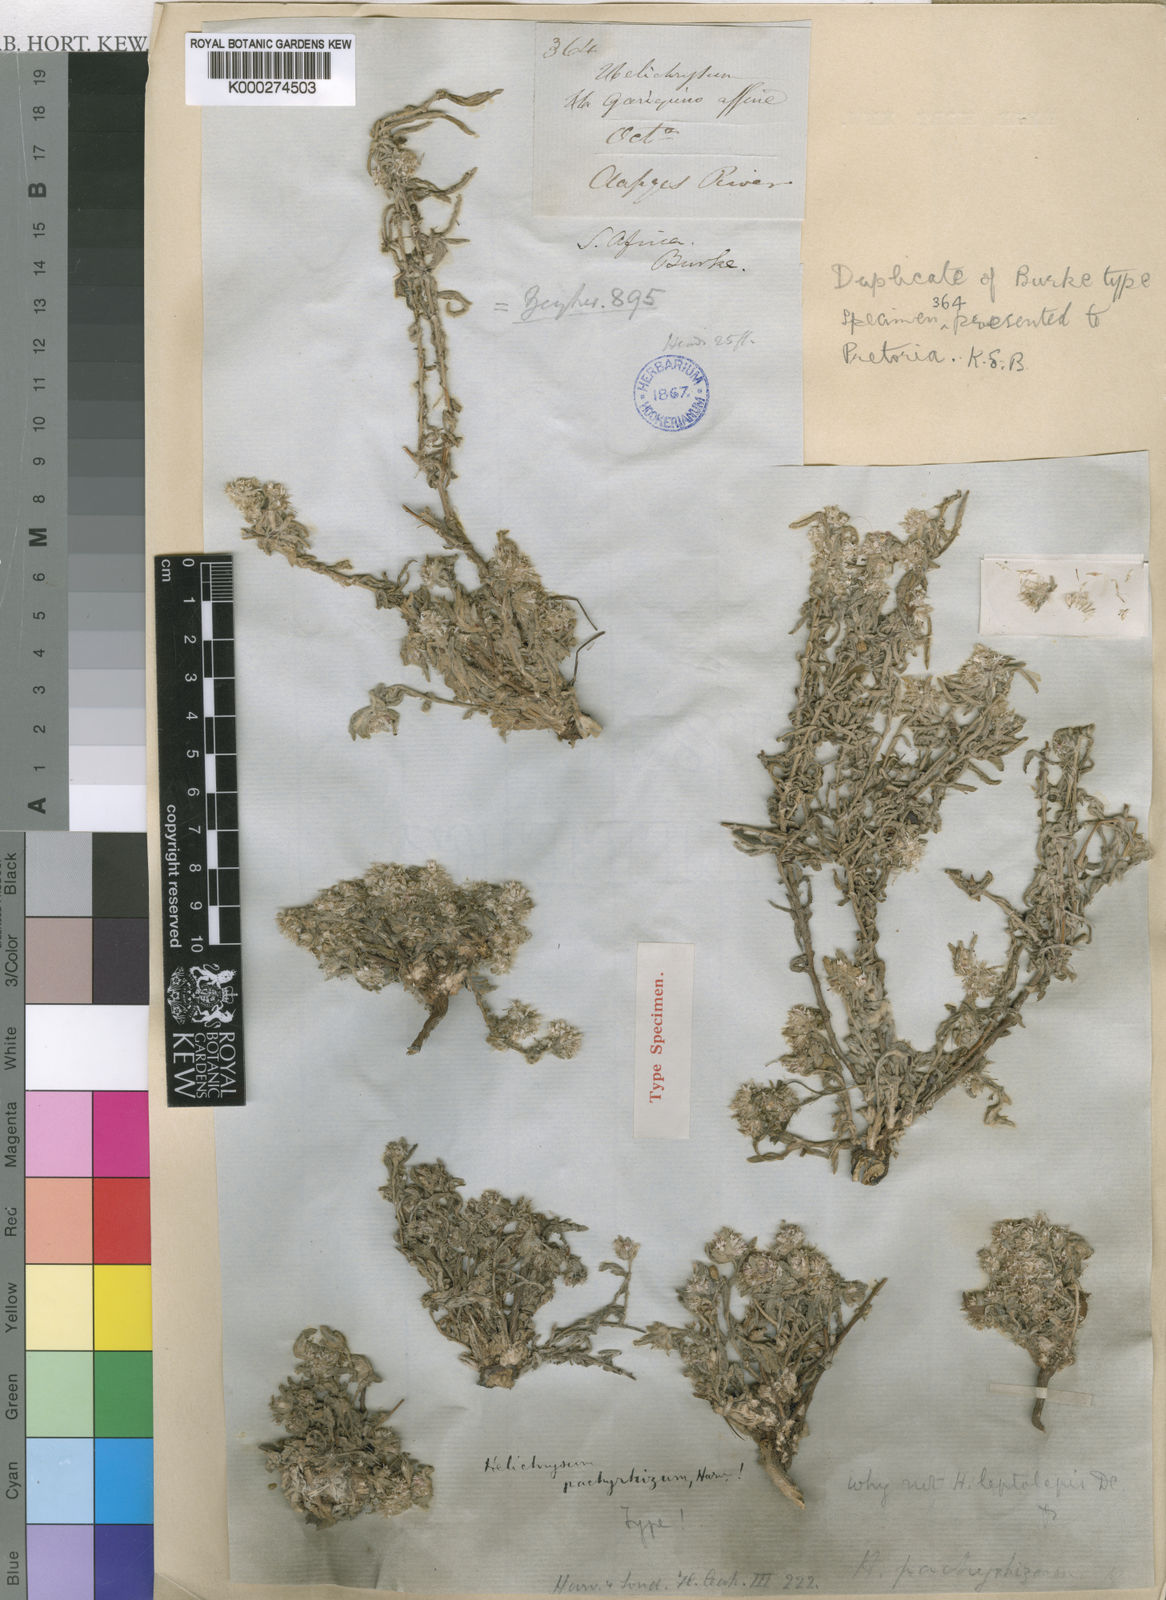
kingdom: Plantae
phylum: Tracheophyta
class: Magnoliopsida
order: Asterales
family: Asteraceae
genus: Helichrysum
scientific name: Helichrysum candolleanum
